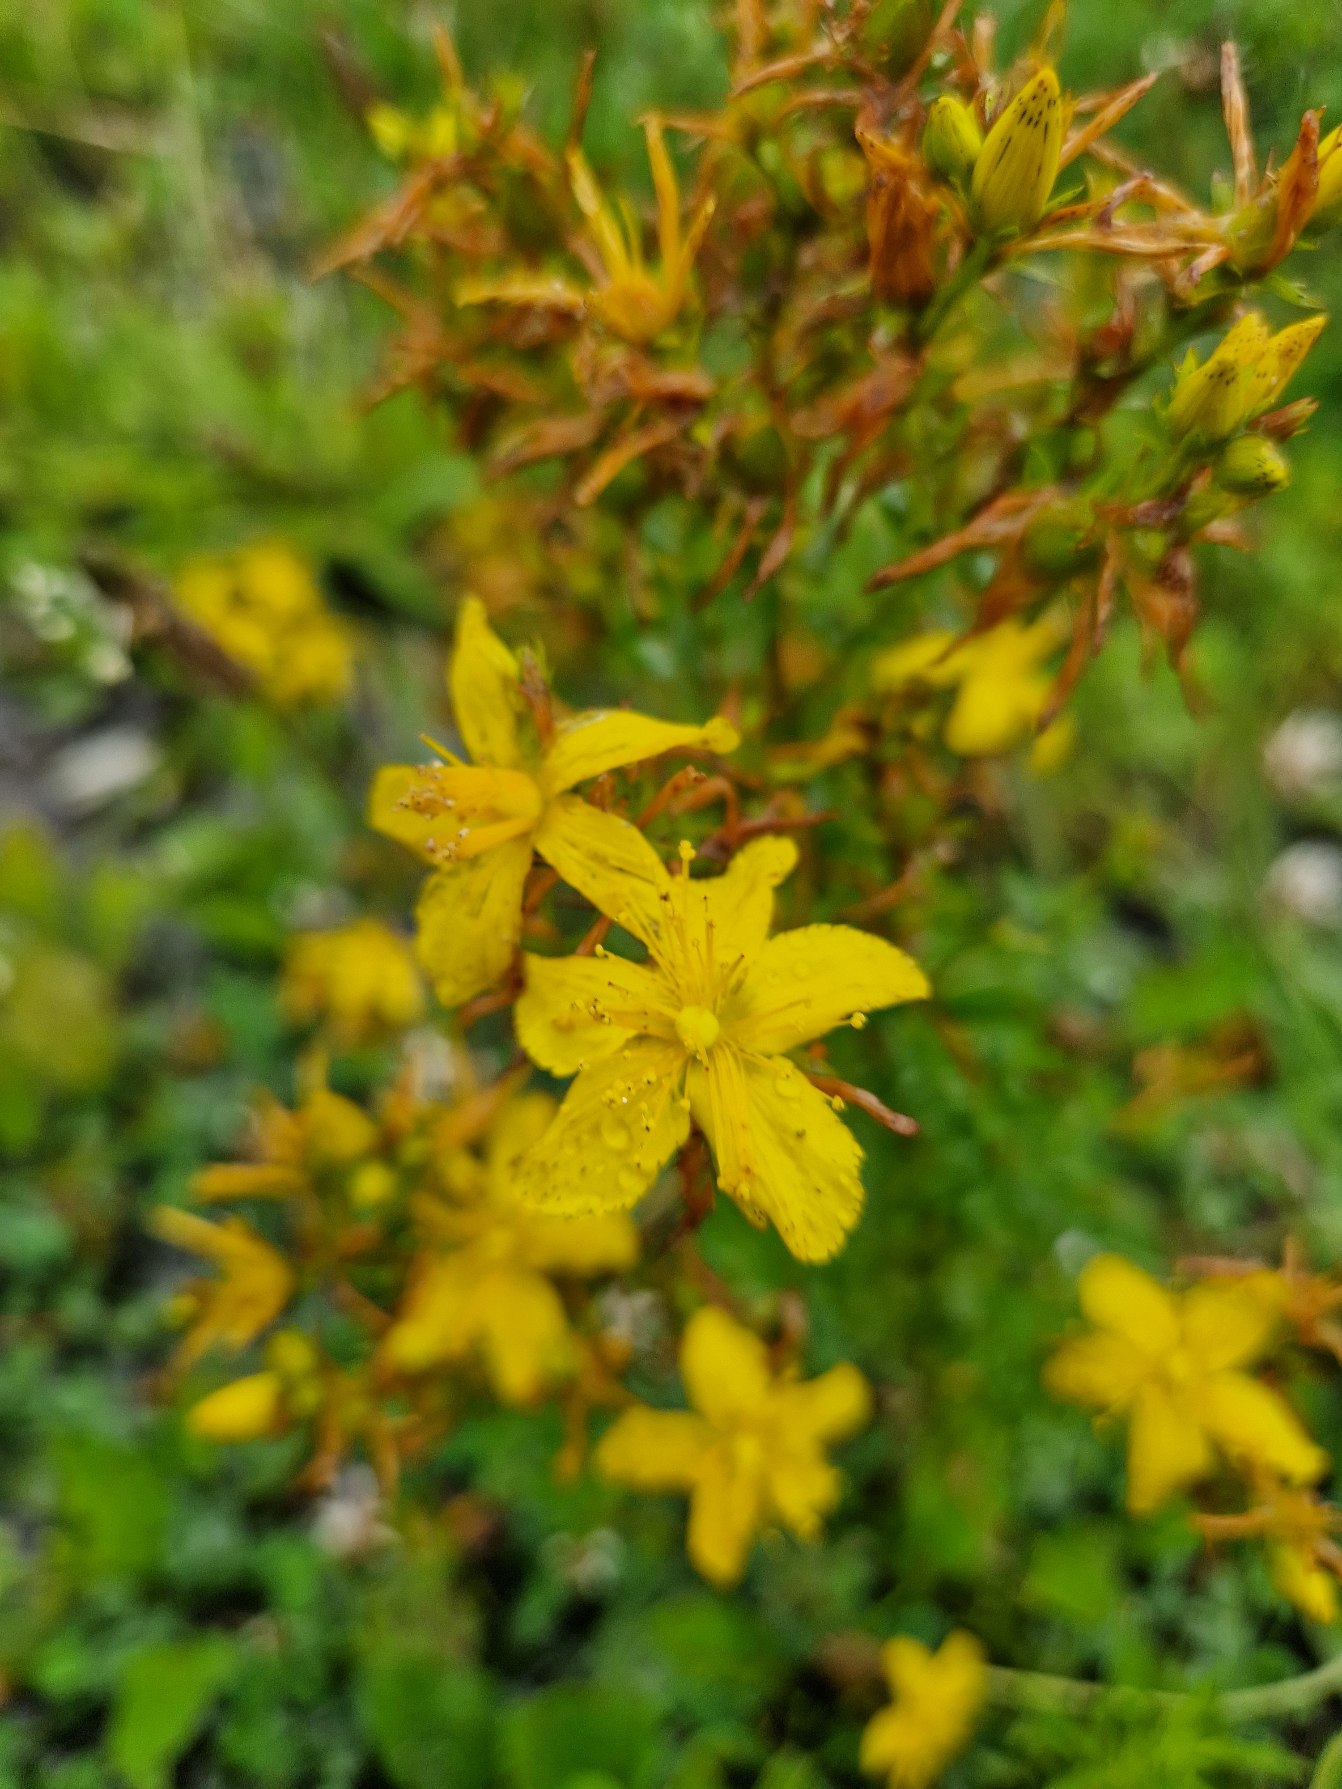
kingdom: Plantae
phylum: Tracheophyta
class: Magnoliopsida
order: Malpighiales
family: Hypericaceae
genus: Hypericum
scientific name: Hypericum perforatum
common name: Prikbladet perikon
